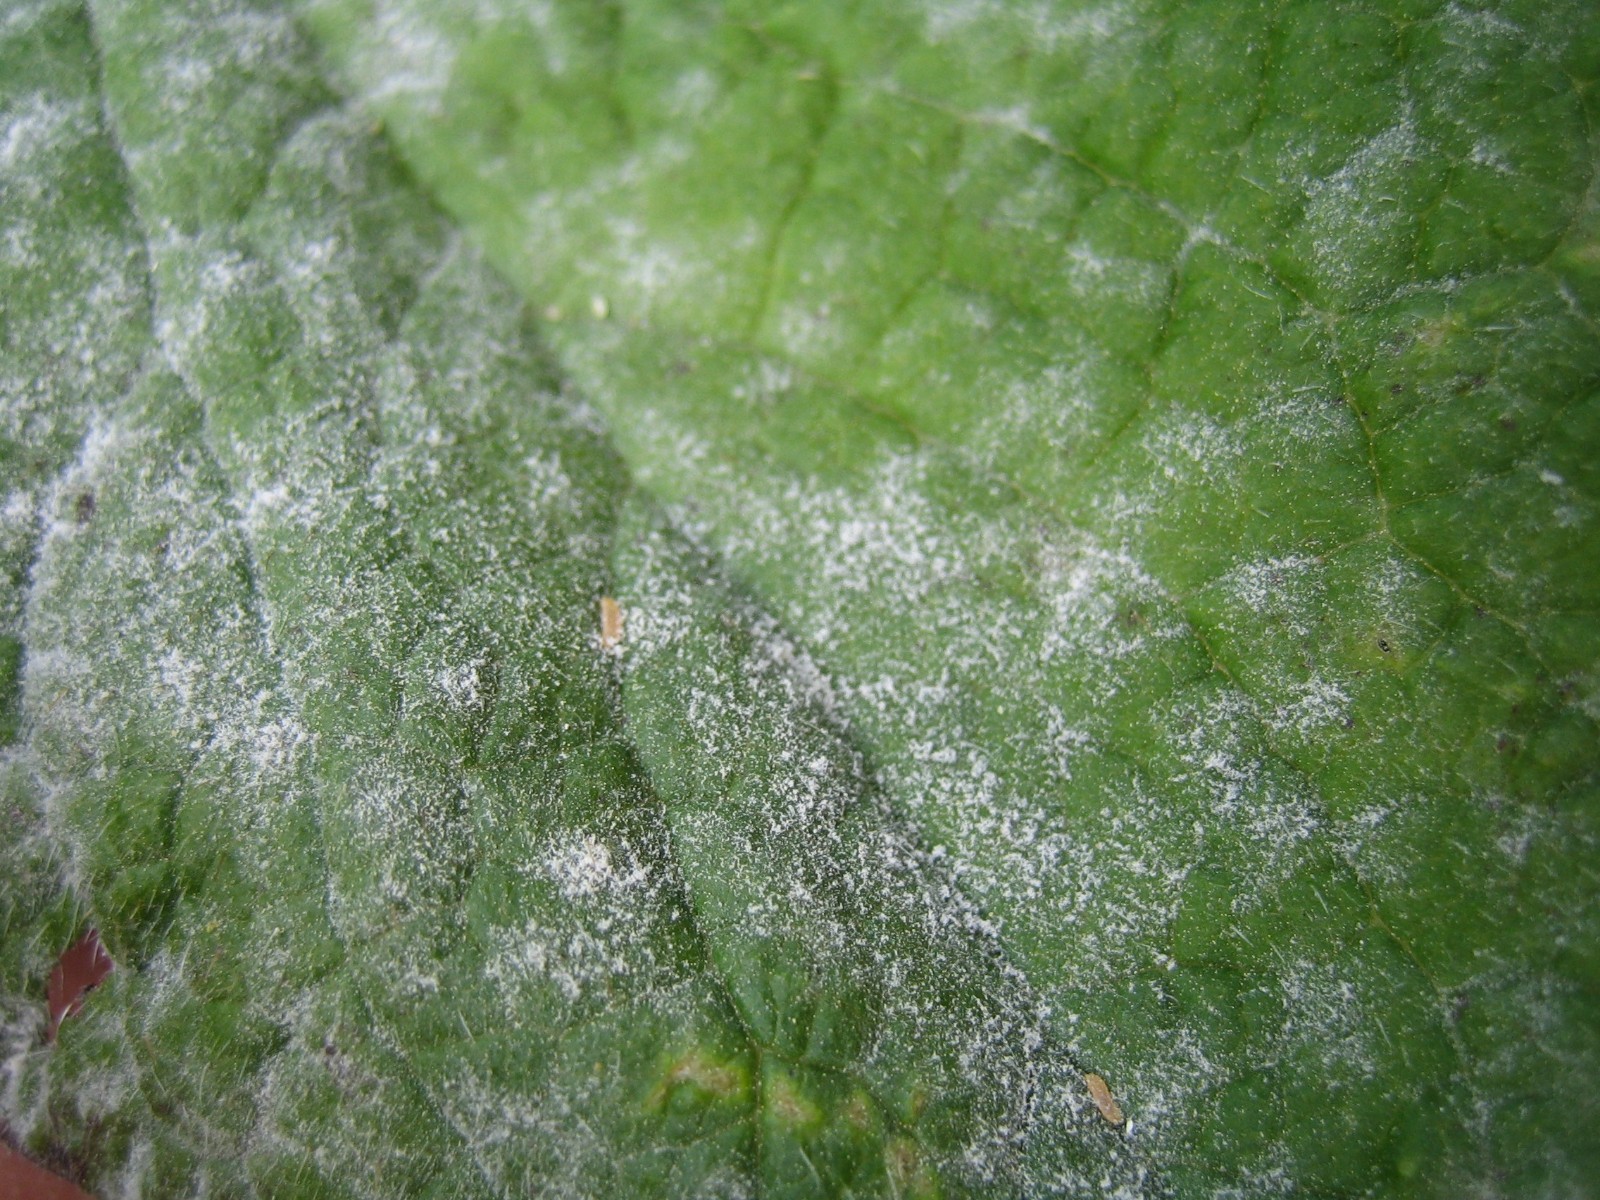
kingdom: Fungi
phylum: Ascomycota
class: Leotiomycetes
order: Helotiales
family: Erysiphaceae
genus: Golovinomyces
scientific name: Golovinomyces
